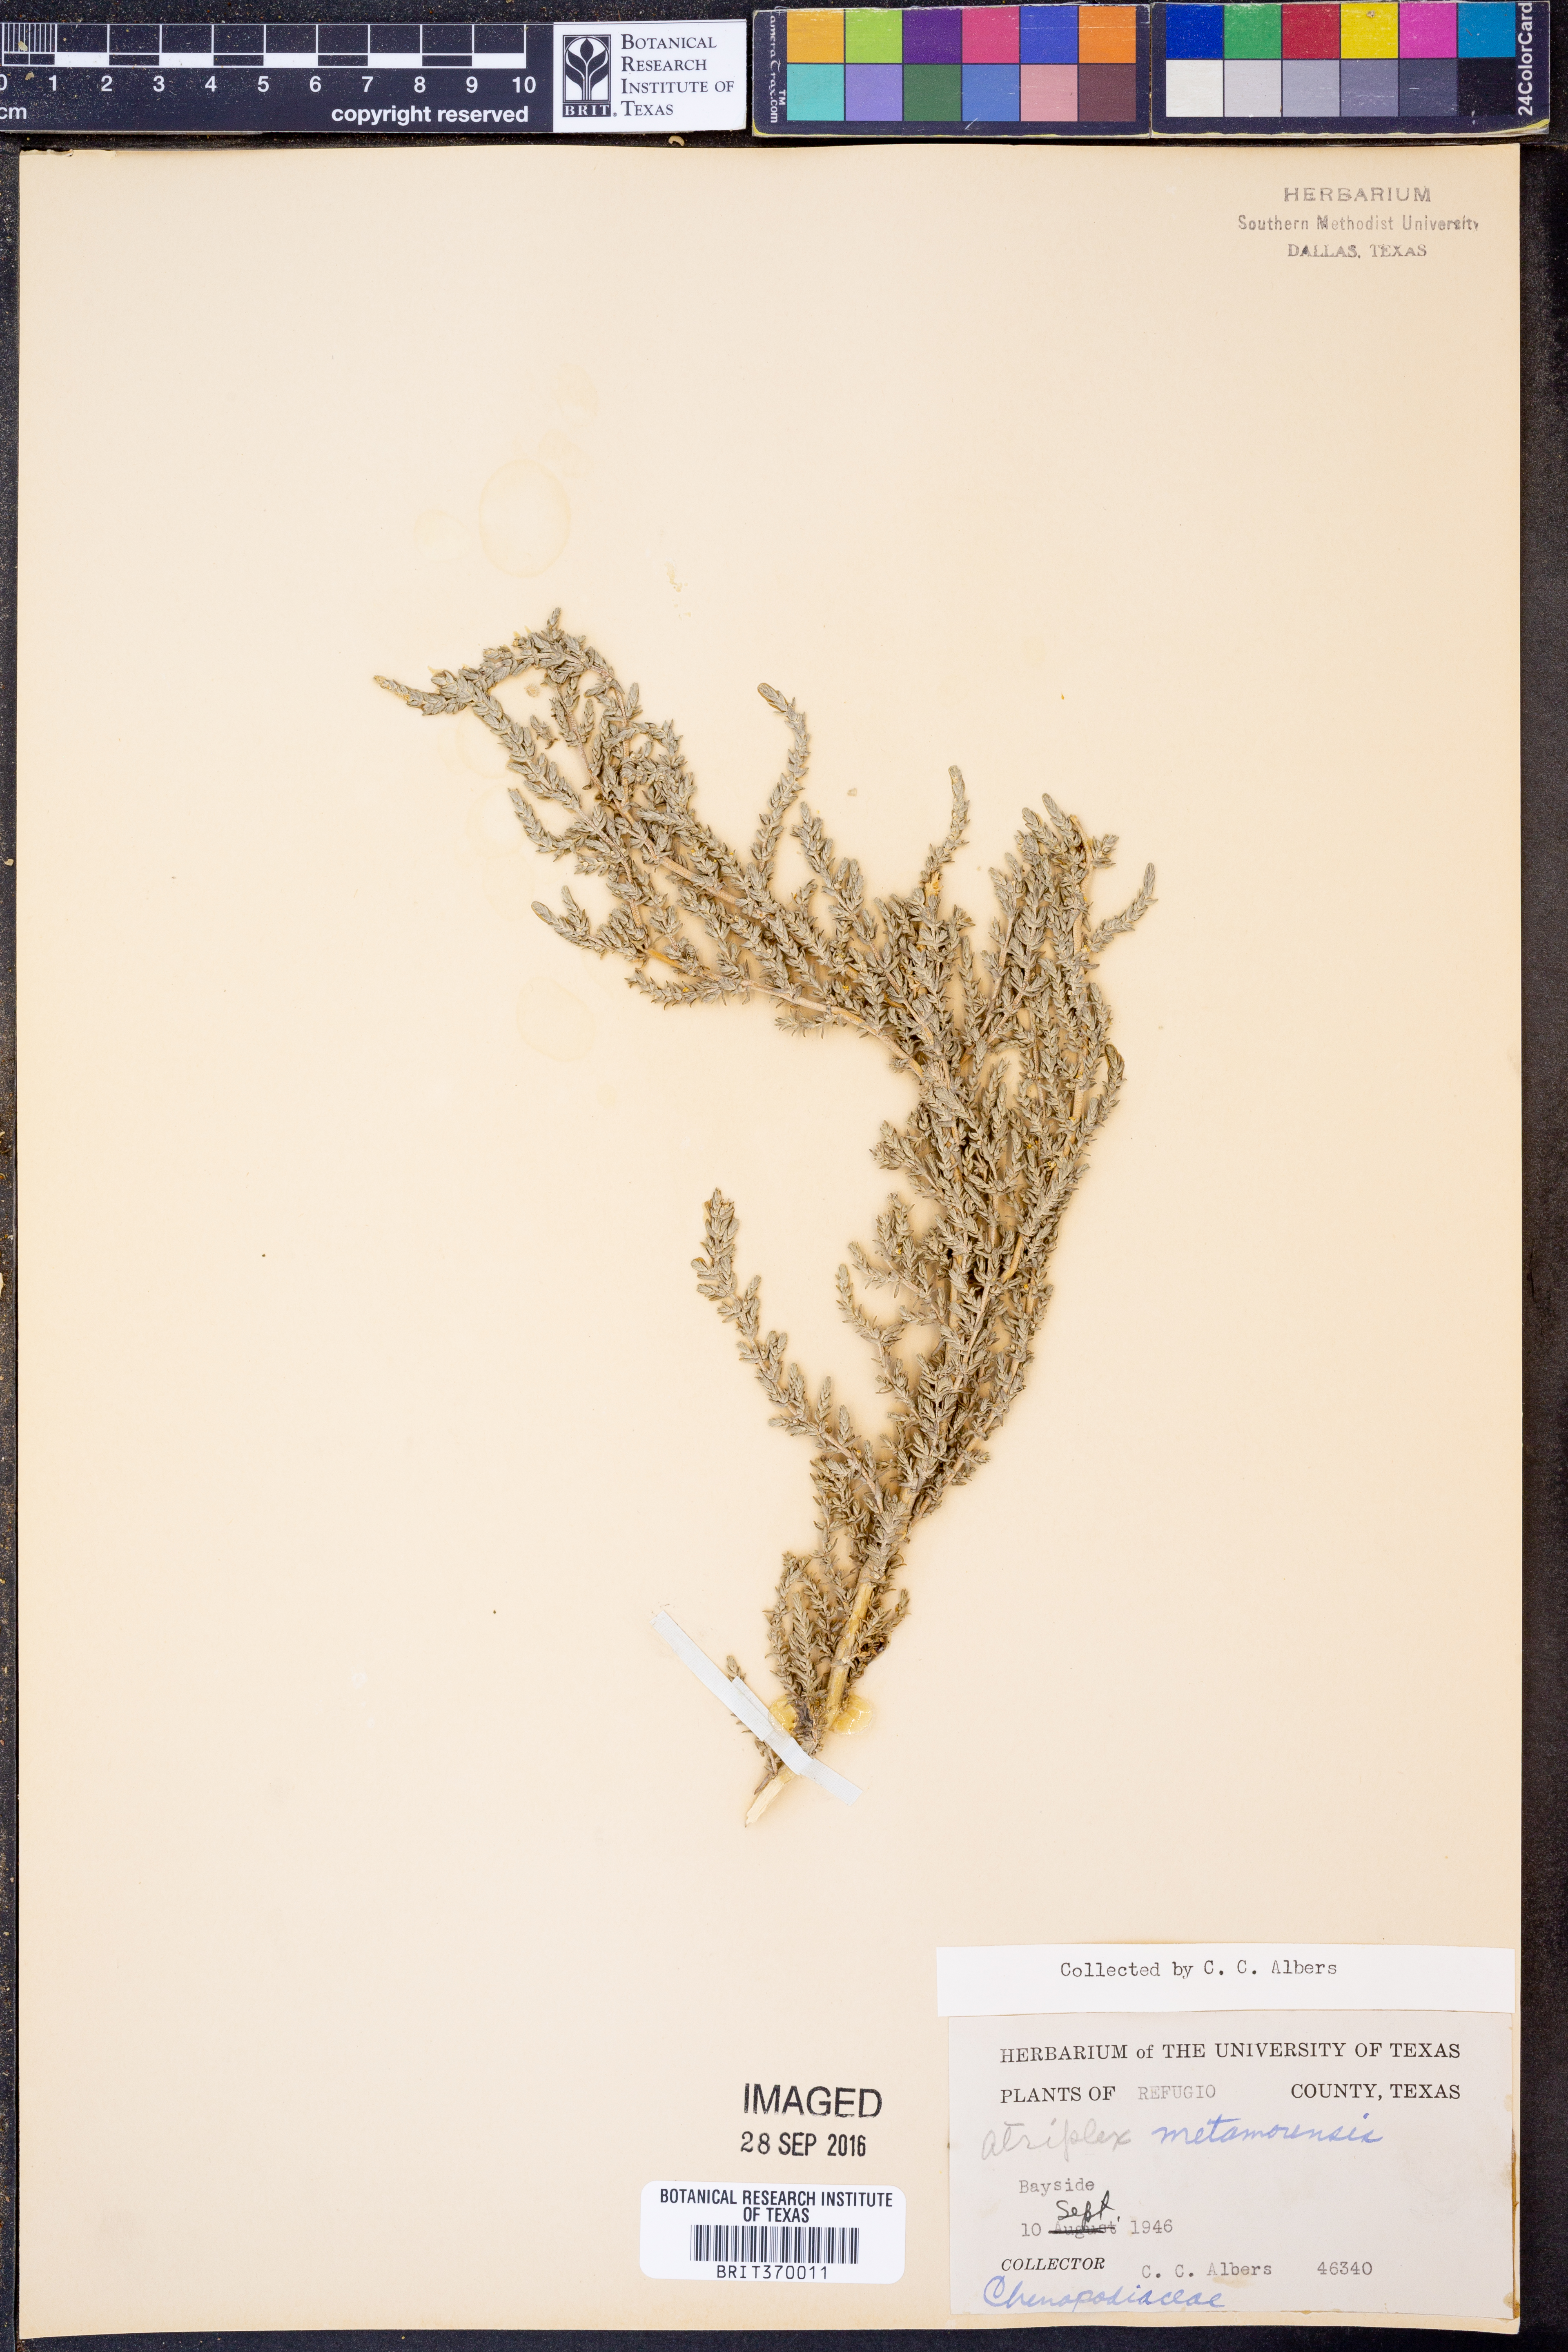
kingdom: Plantae
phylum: Tracheophyta
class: Magnoliopsida
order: Caryophyllales
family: Amaranthaceae
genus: Atriplex
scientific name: Atriplex matamorensis
